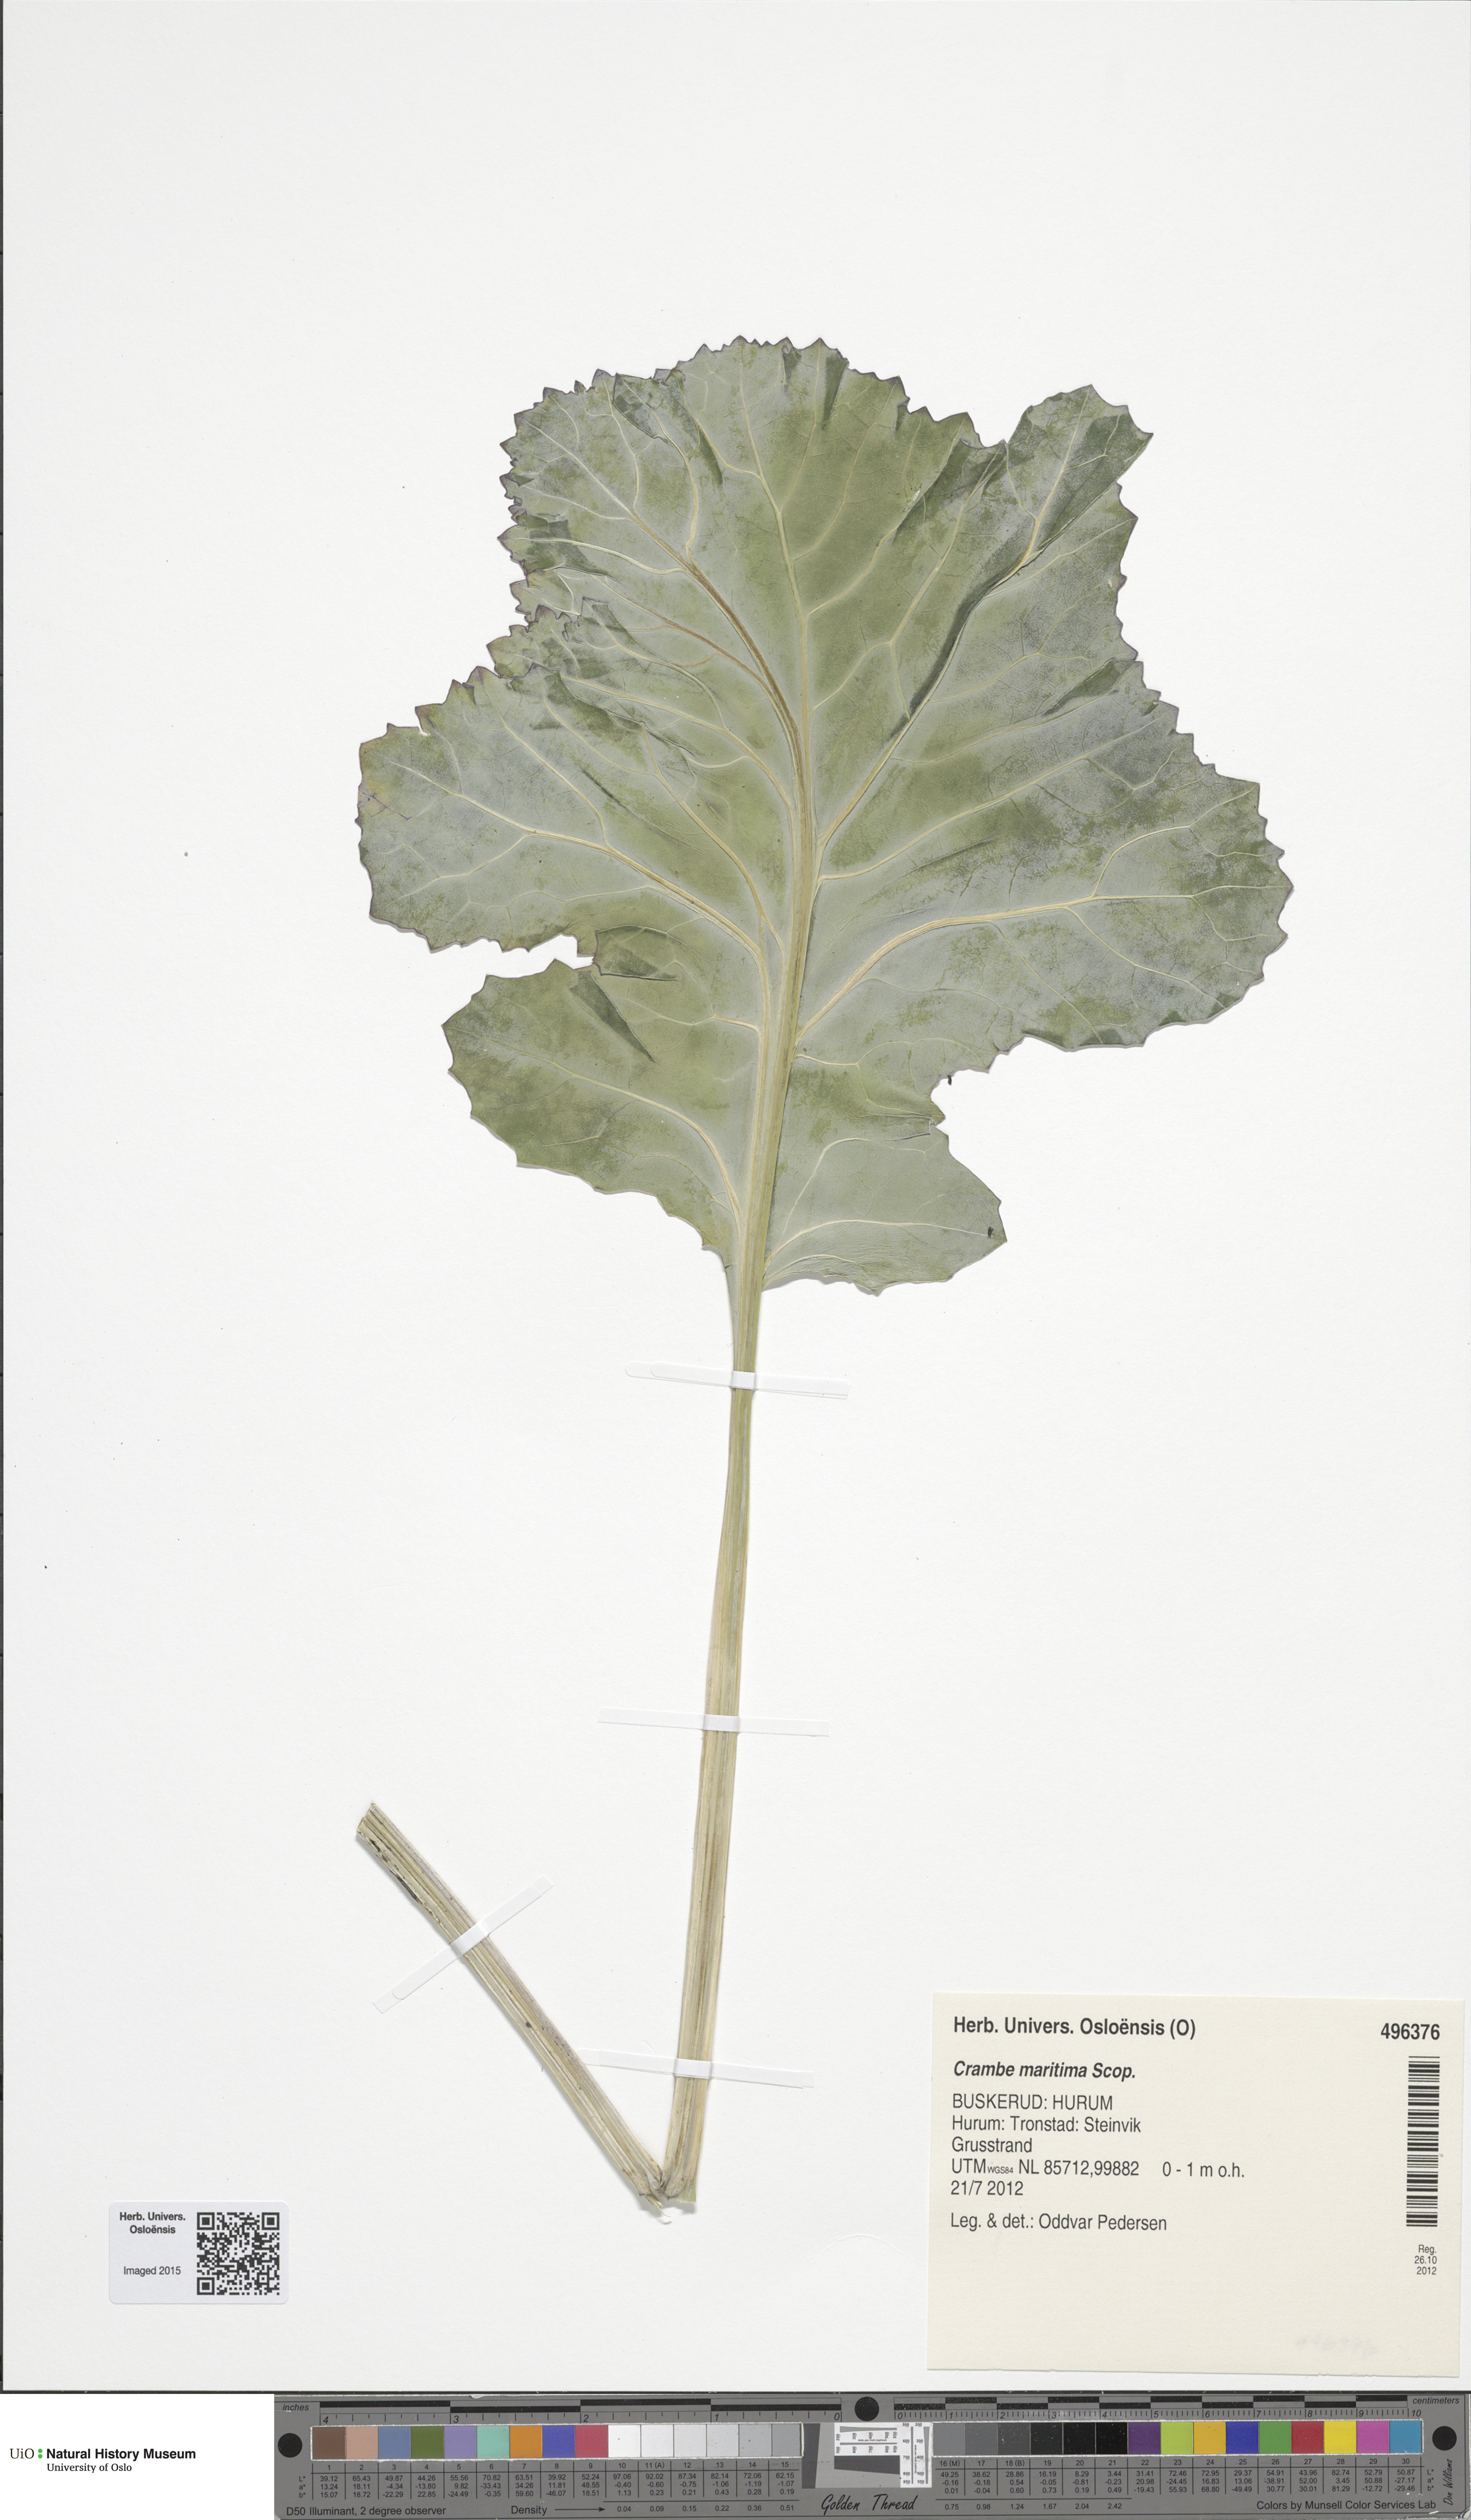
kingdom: Plantae
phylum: Tracheophyta
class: Magnoliopsida
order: Brassicales
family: Brassicaceae
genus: Crambe
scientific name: Crambe maritima
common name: Sea-kale
